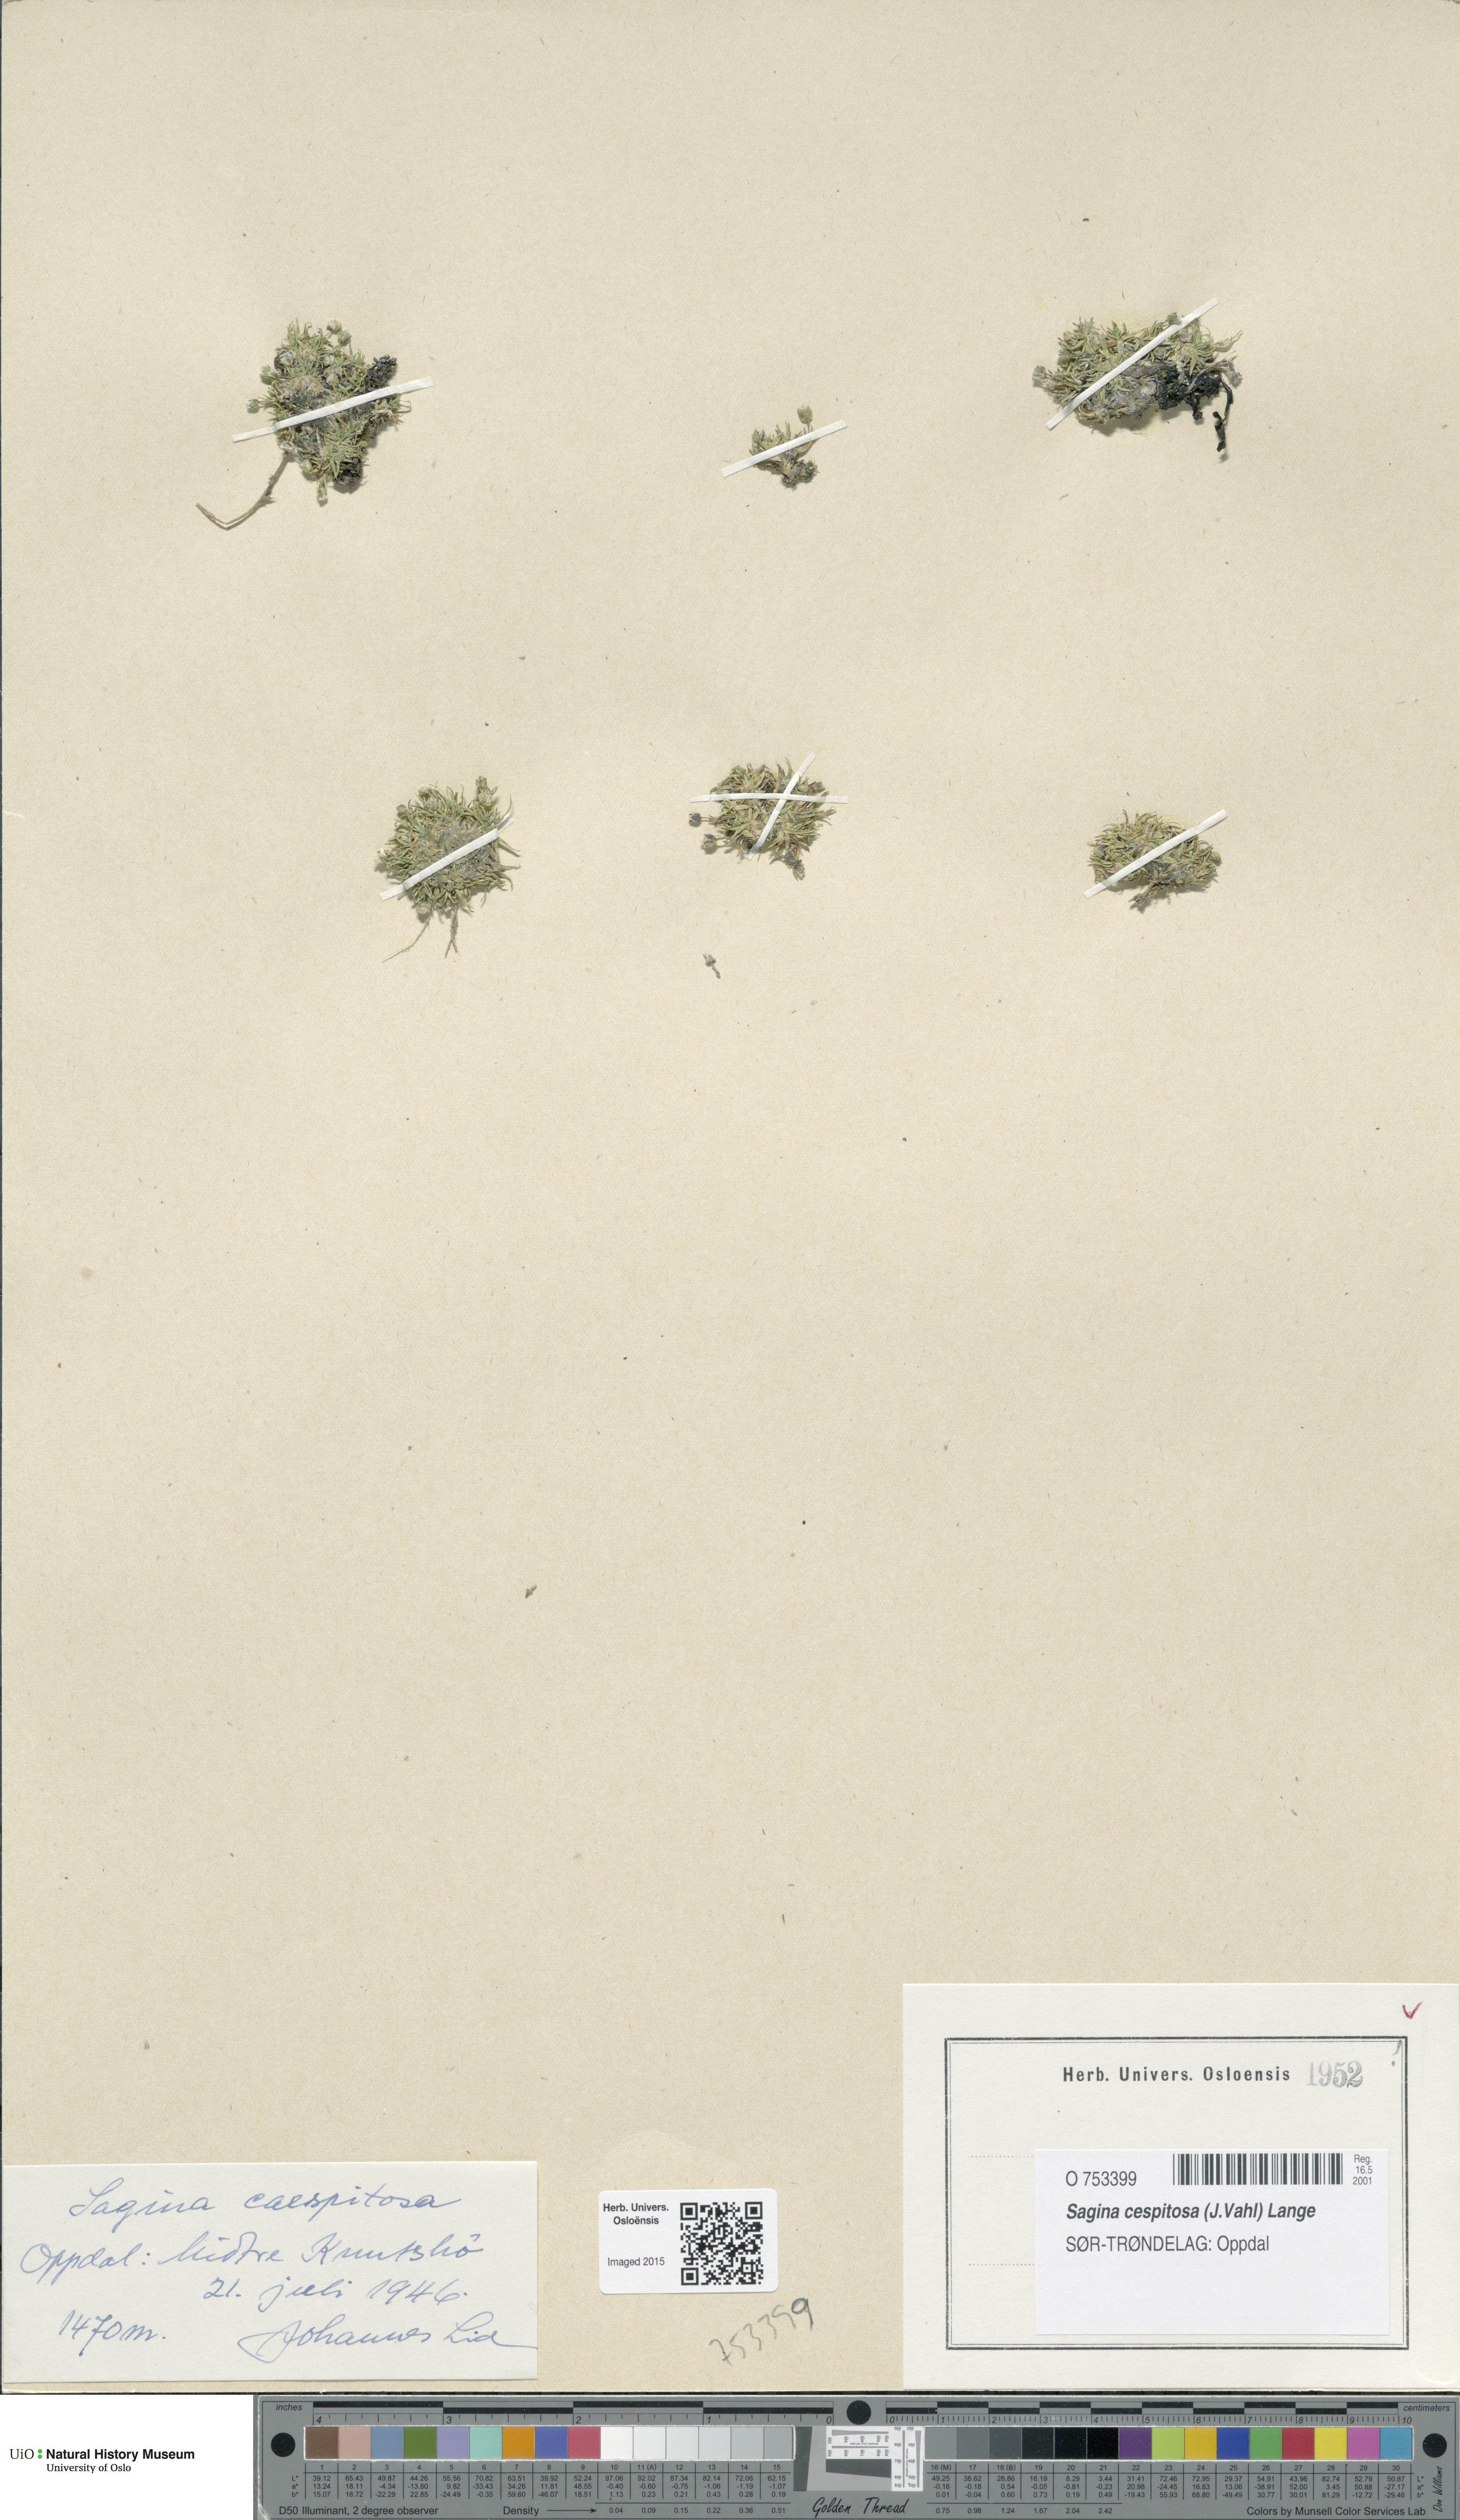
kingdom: Plantae
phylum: Tracheophyta
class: Magnoliopsida
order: Caryophyllales
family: Caryophyllaceae
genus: Sagina
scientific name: Sagina caespitosa
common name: Tufted pearlwort
